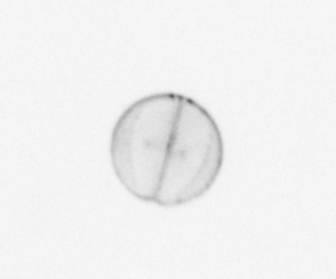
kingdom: Chromista
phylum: Ochrophyta
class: Bacillariophyceae
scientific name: Bacillariophyceae
